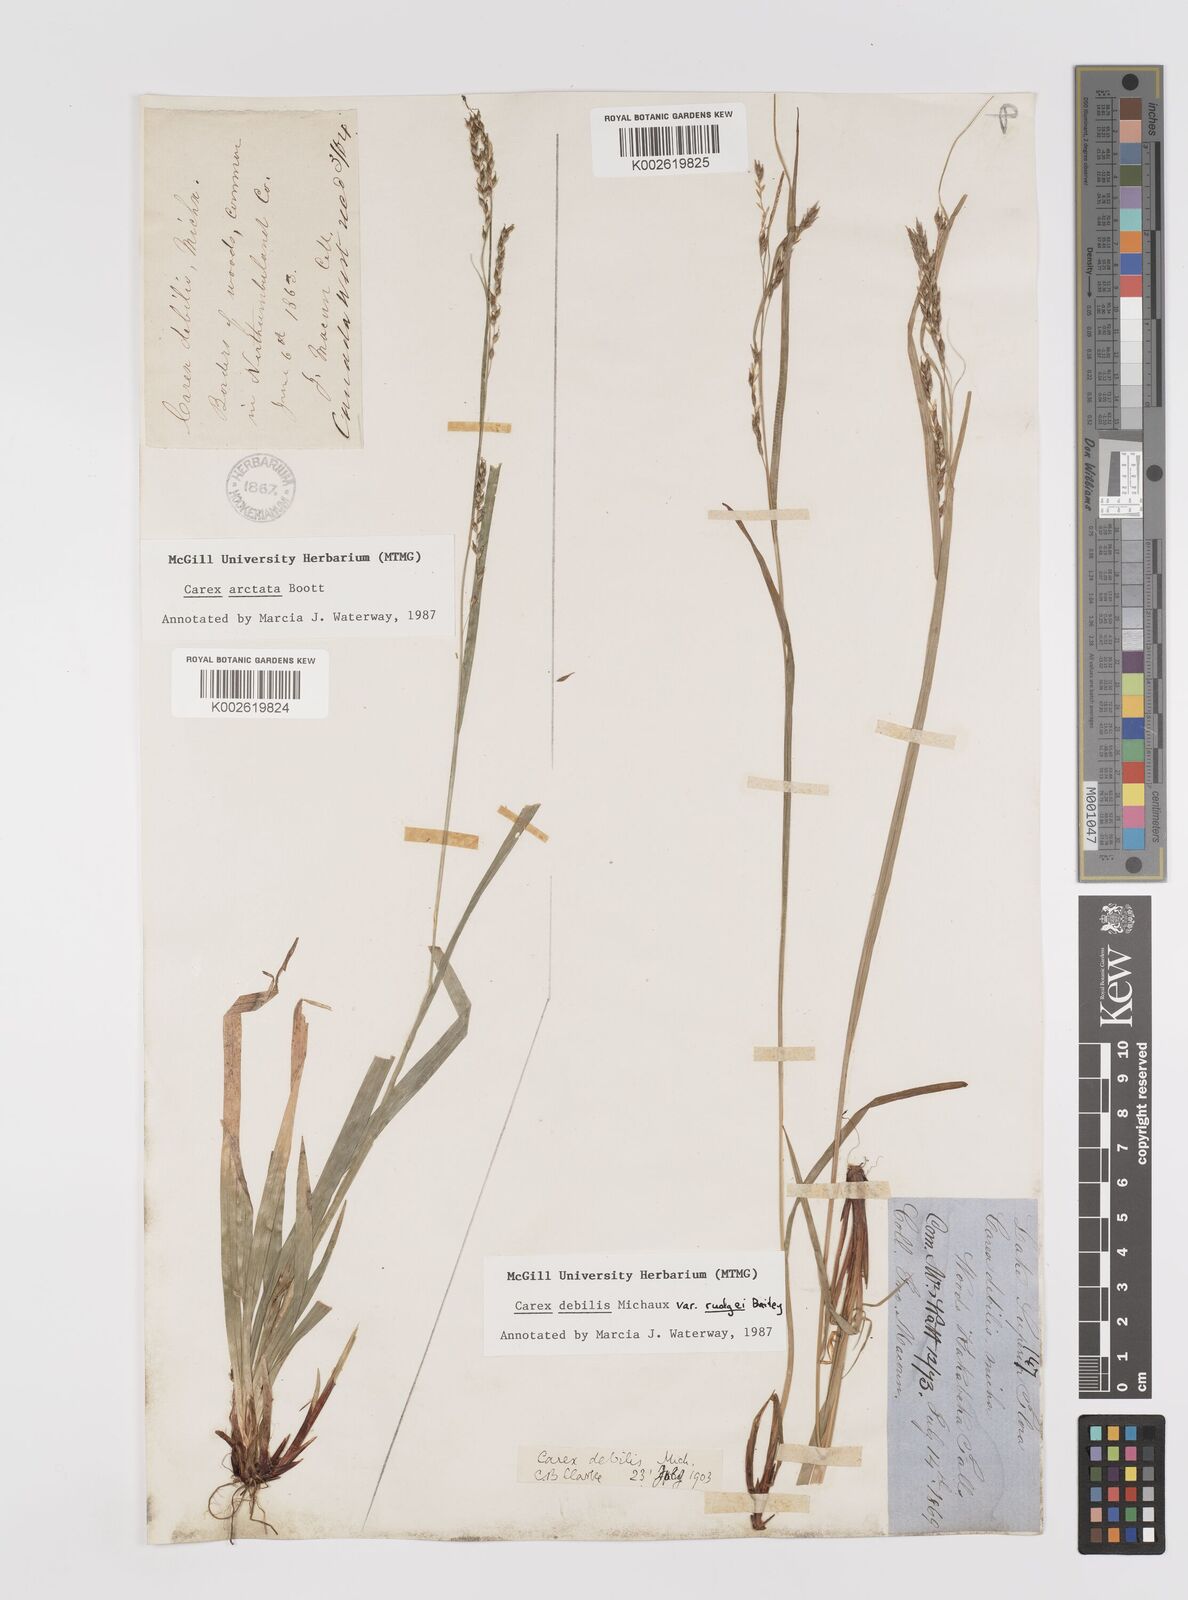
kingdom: Plantae
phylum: Tracheophyta
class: Liliopsida
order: Poales
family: Cyperaceae
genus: Carex
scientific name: Carex debilis
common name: White-edge sedge
